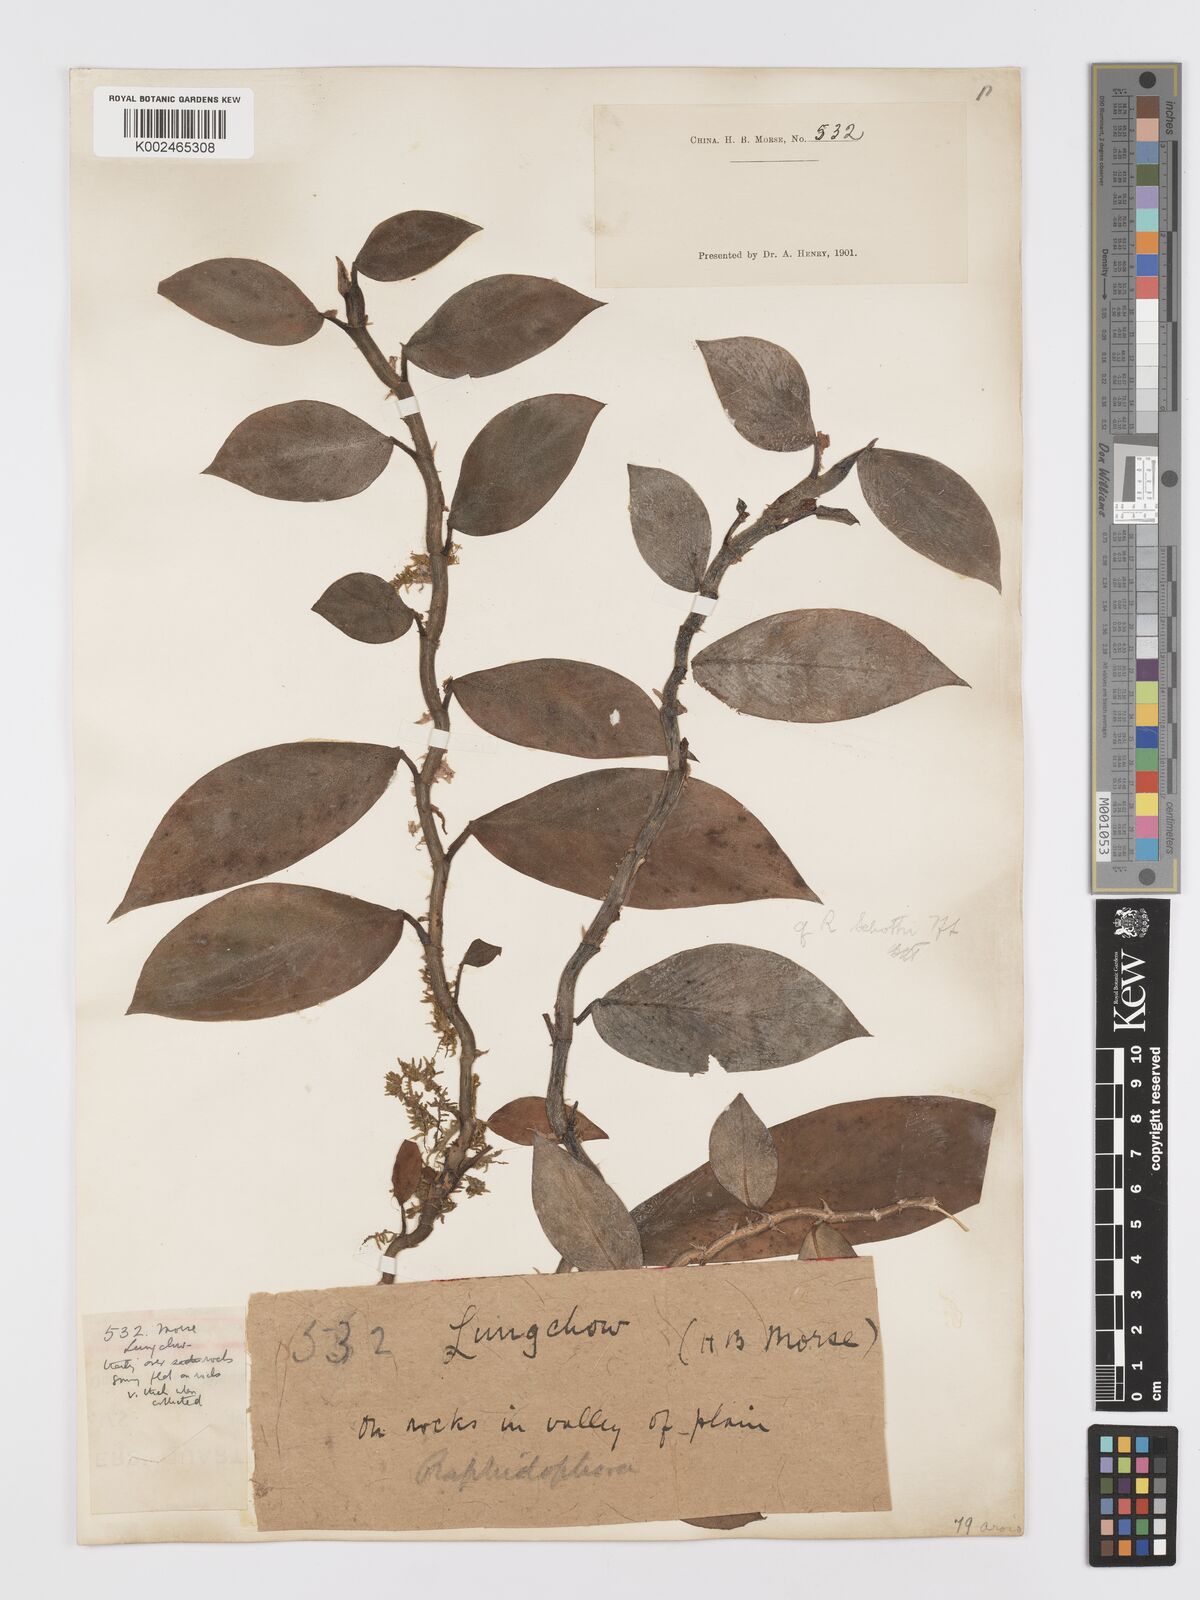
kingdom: Plantae
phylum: Tracheophyta
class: Liliopsida
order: Alismatales
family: Araceae
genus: Rhaphidophora
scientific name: Rhaphidophora
